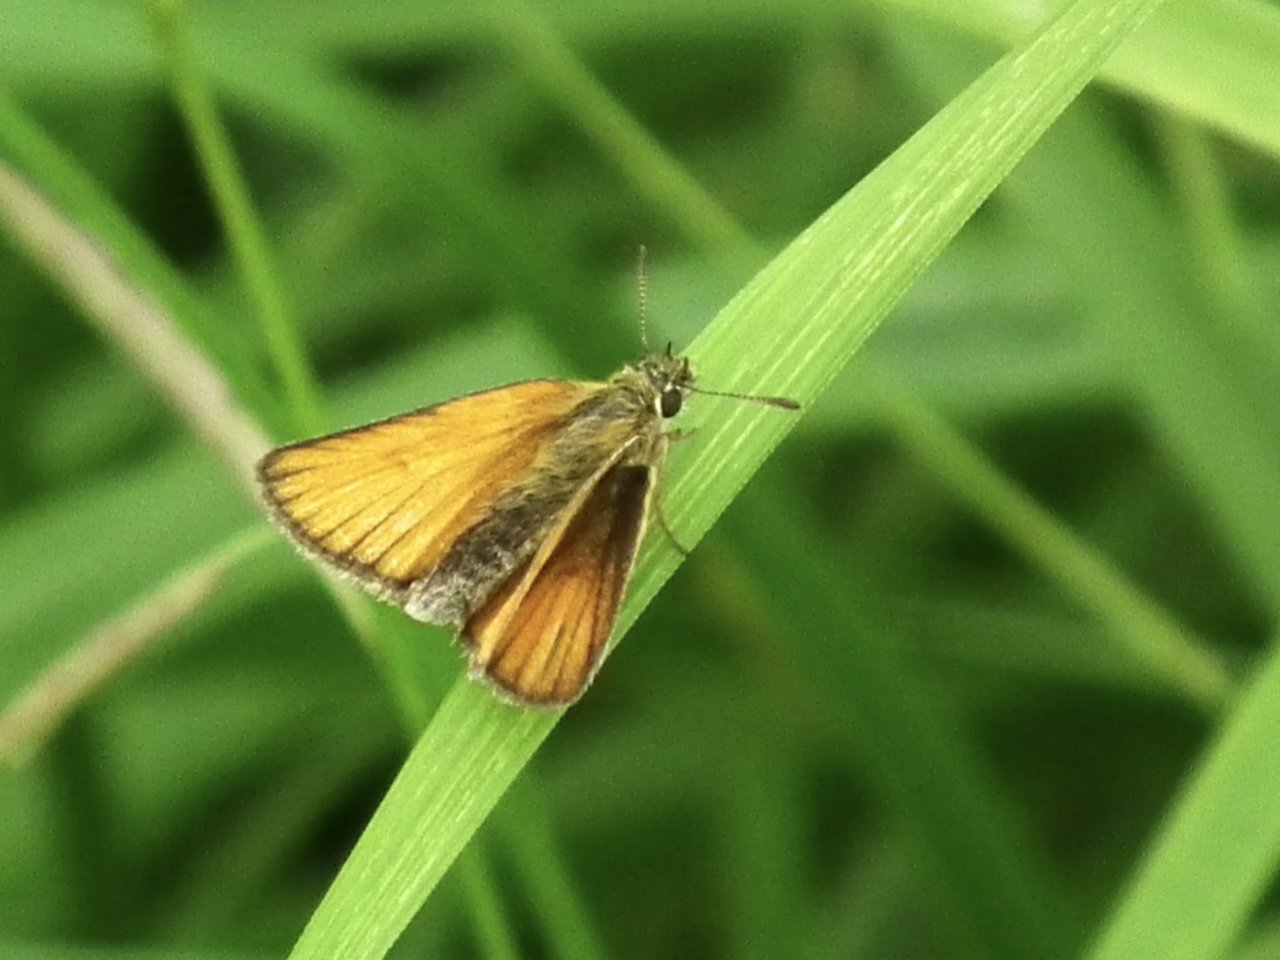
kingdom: Animalia
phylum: Arthropoda
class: Insecta
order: Lepidoptera
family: Hesperiidae
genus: Thymelicus
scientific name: Thymelicus lineola
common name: European Skipper
